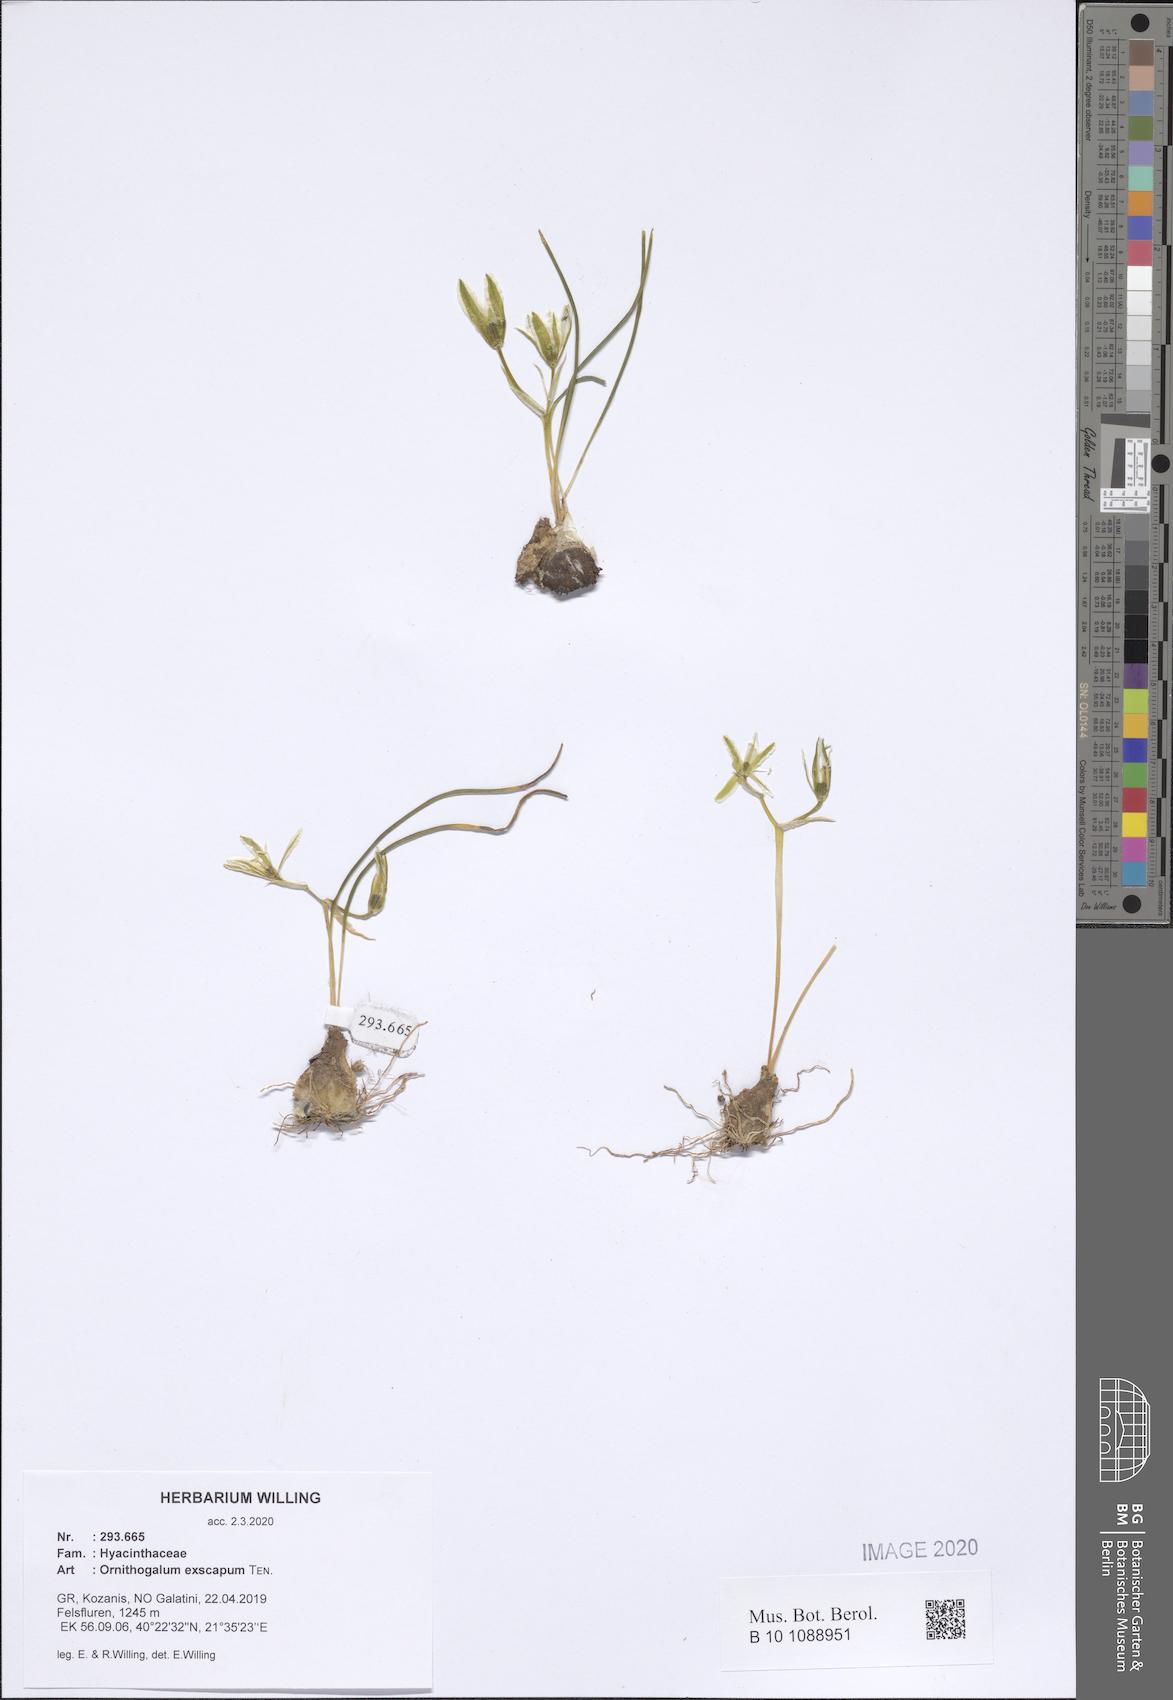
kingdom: Plantae
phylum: Tracheophyta
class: Liliopsida
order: Asparagales
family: Asparagaceae
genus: Ornithogalum
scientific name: Ornithogalum exscapum
